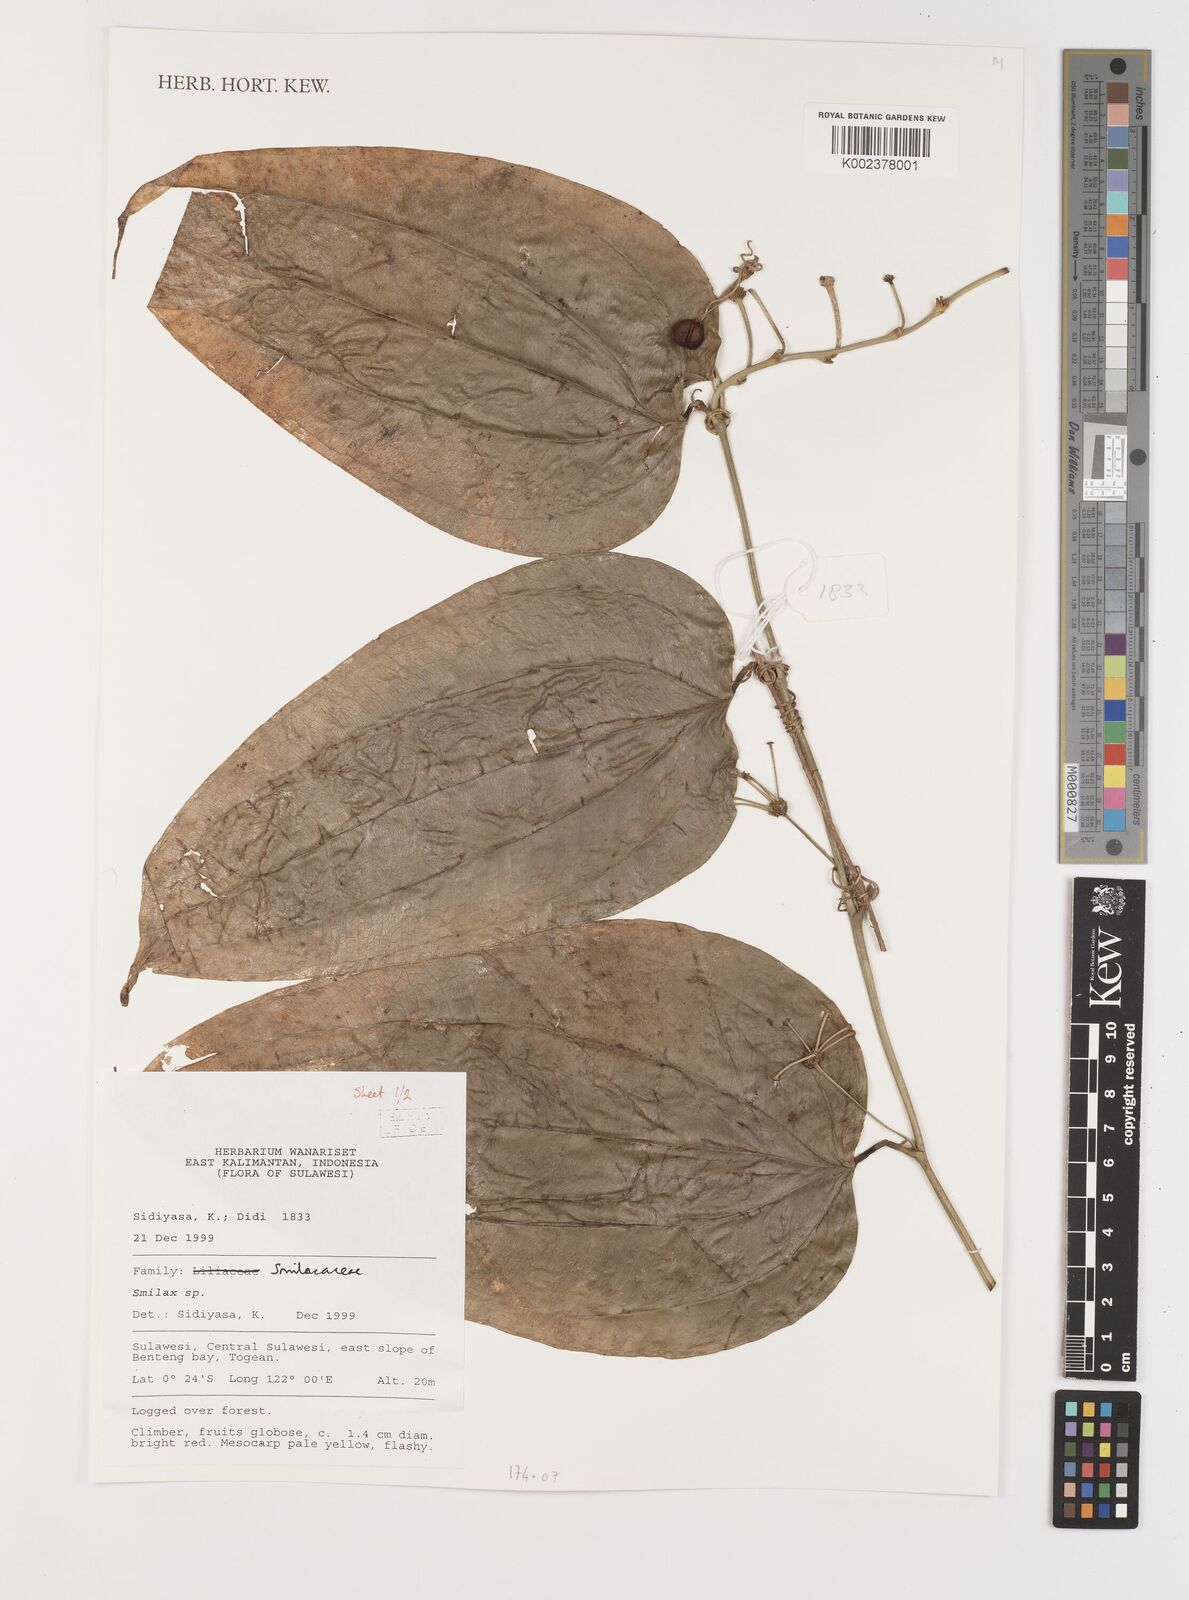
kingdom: Plantae
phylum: Tracheophyta
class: Liliopsida
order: Liliales
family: Smilacaceae
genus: Smilax
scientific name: Smilax
